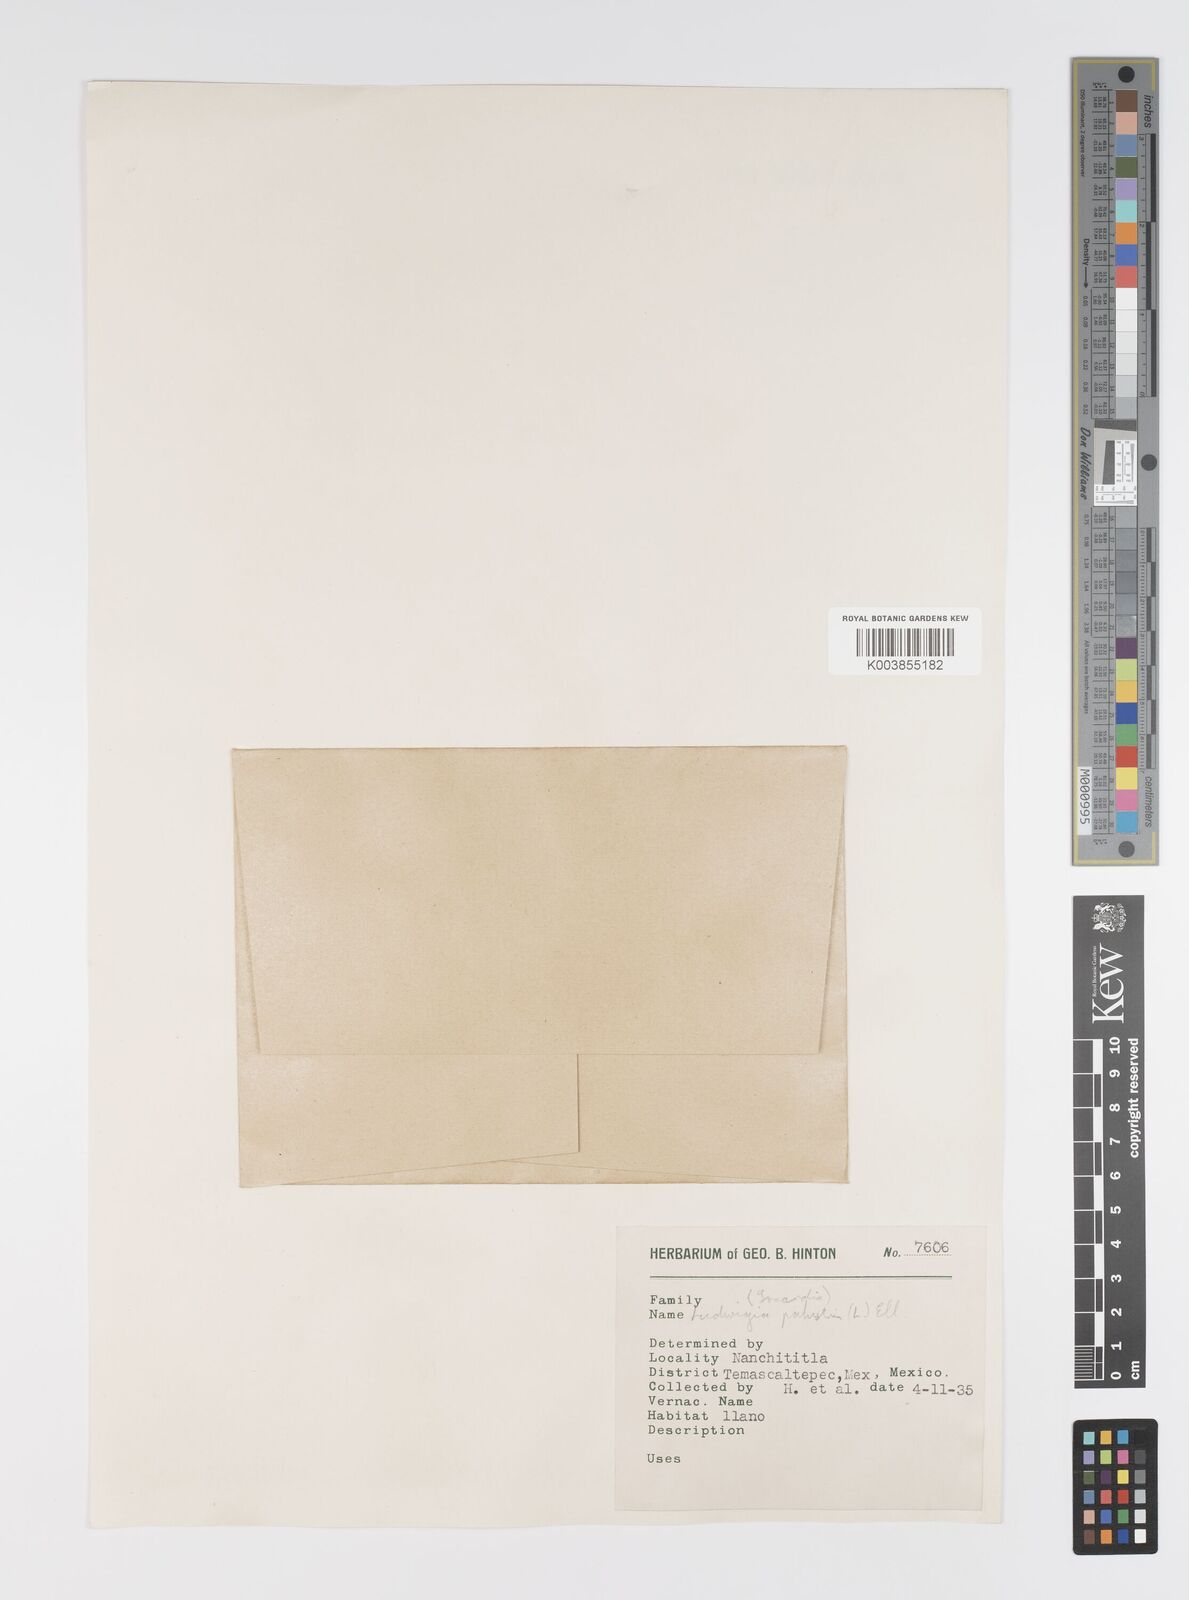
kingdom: Plantae
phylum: Tracheophyta
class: Magnoliopsida
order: Myrtales
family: Onagraceae
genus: Ludwigia
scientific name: Ludwigia palustris
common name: Hampshire-purslane
